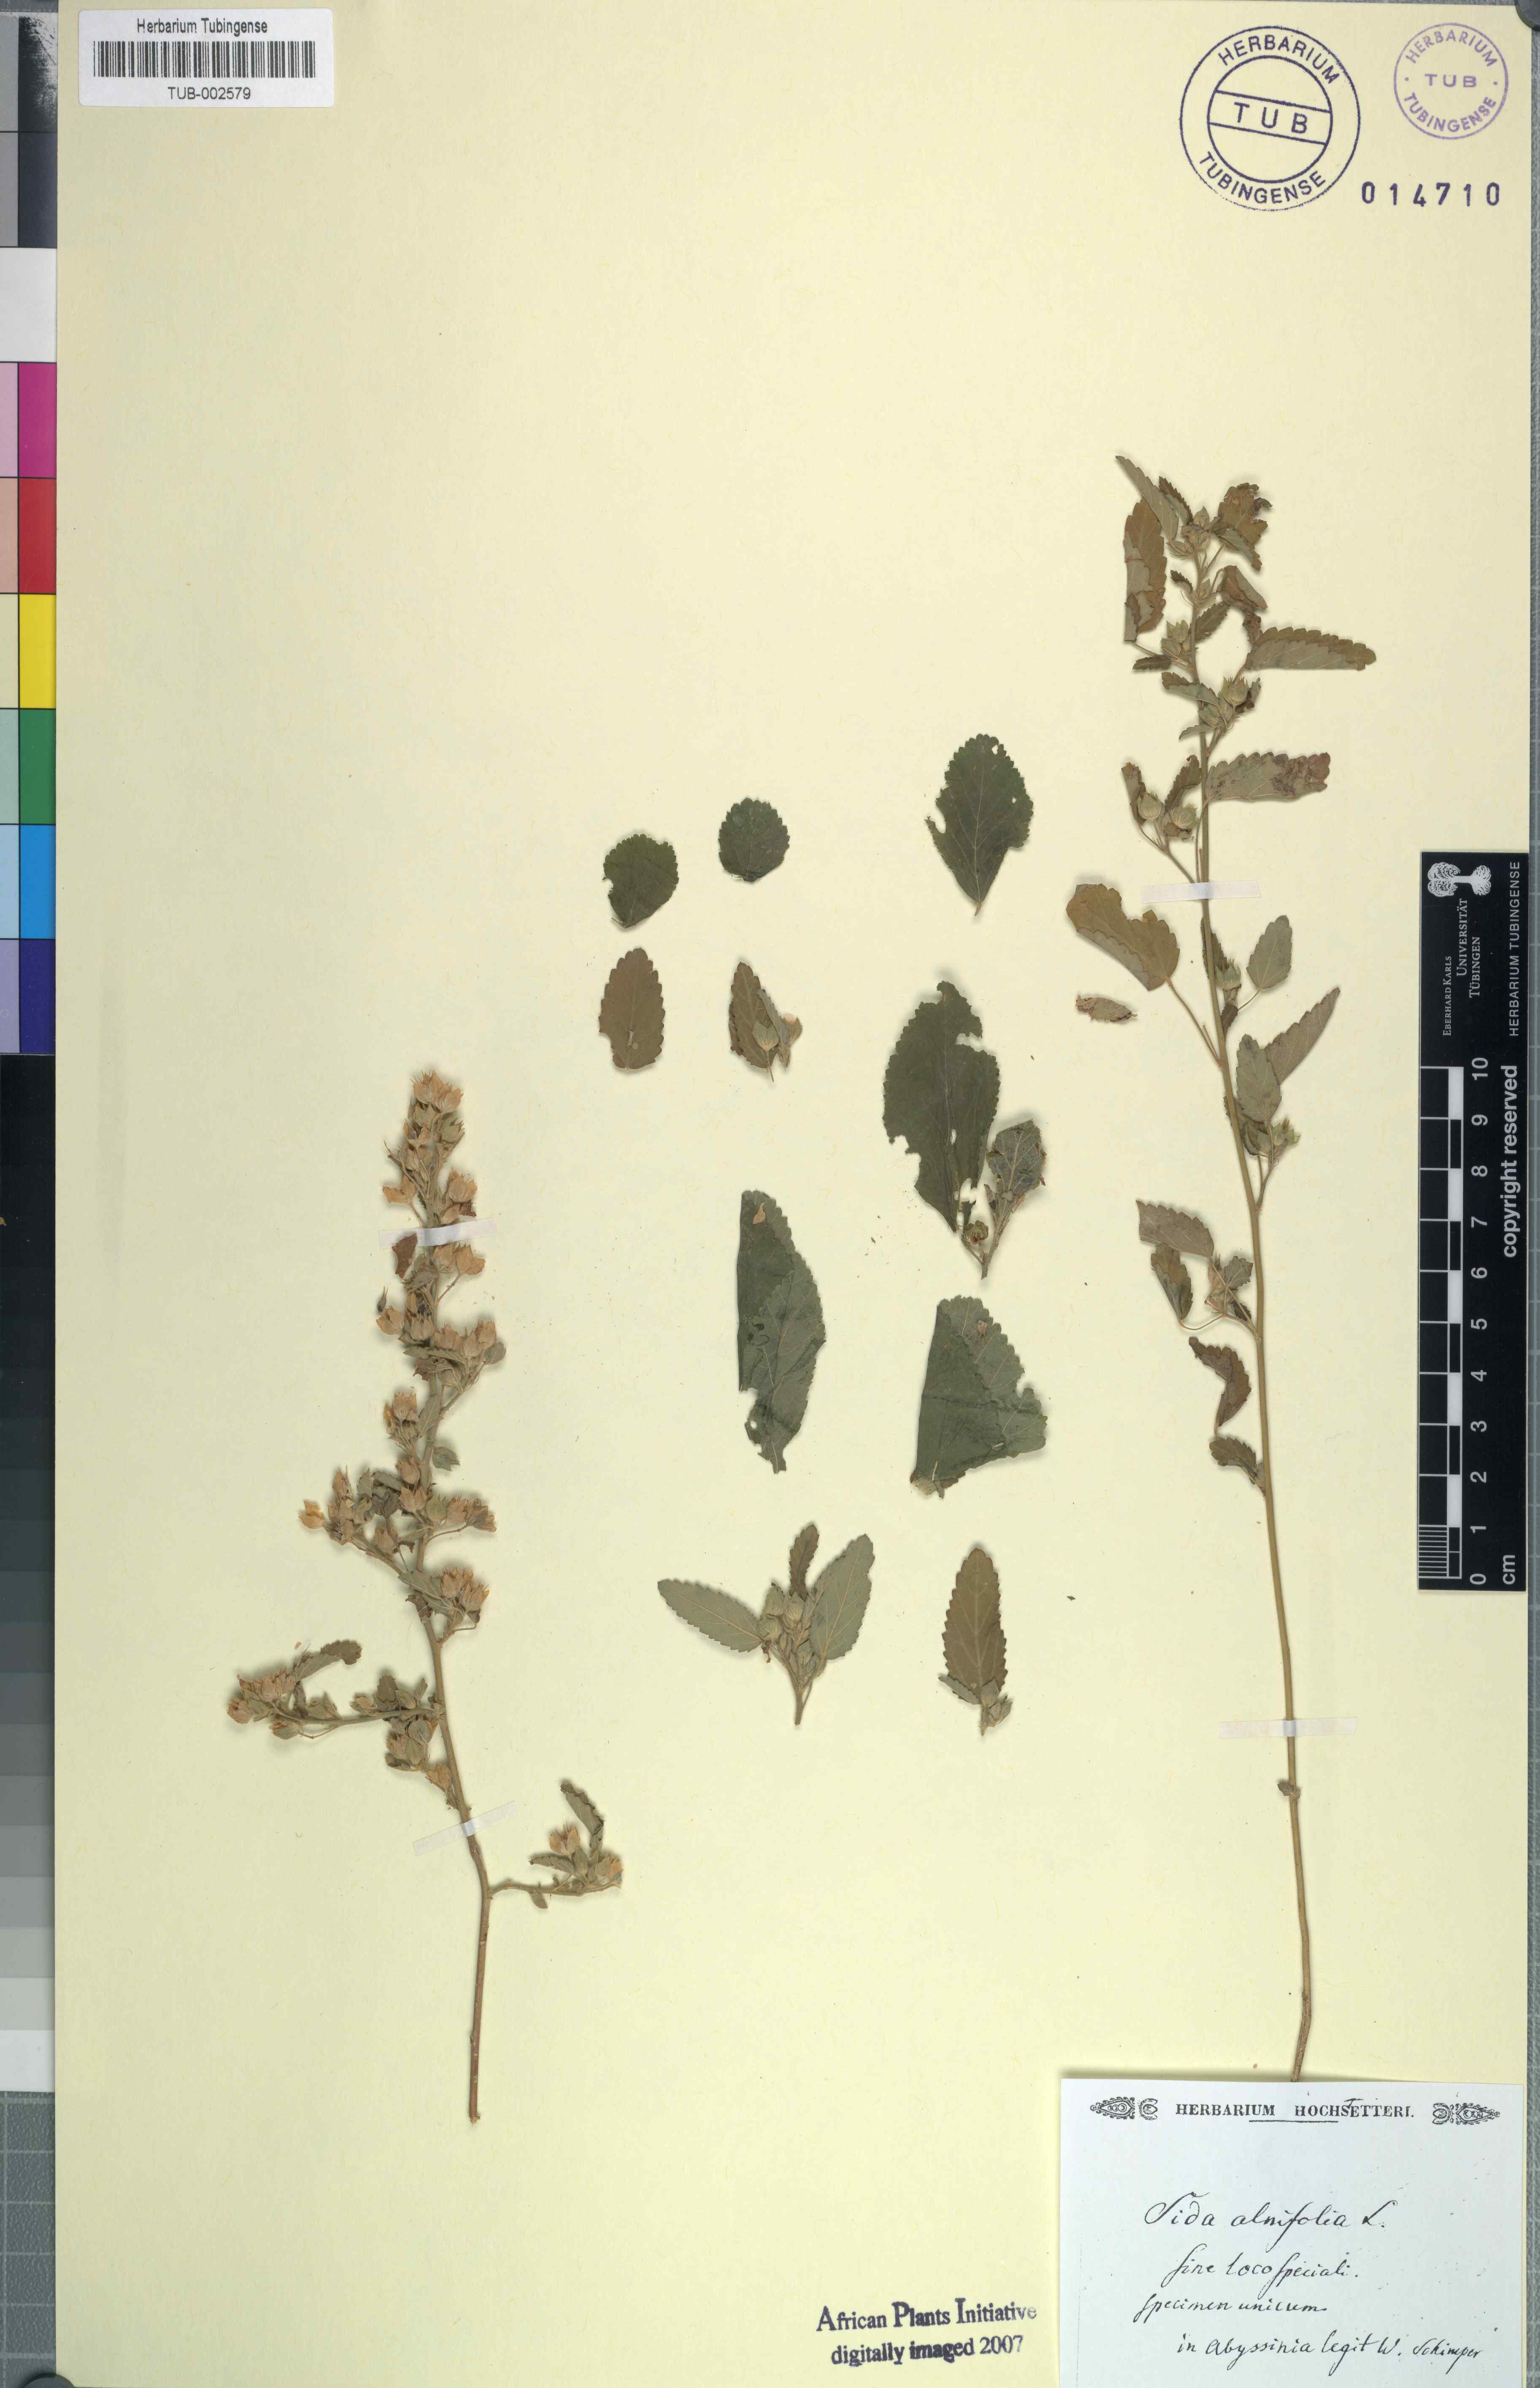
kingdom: Plantae
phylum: Tracheophyta
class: Magnoliopsida
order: Malvales
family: Malvaceae
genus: Sida
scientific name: Sida spinosa
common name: Prickly fanpetals
